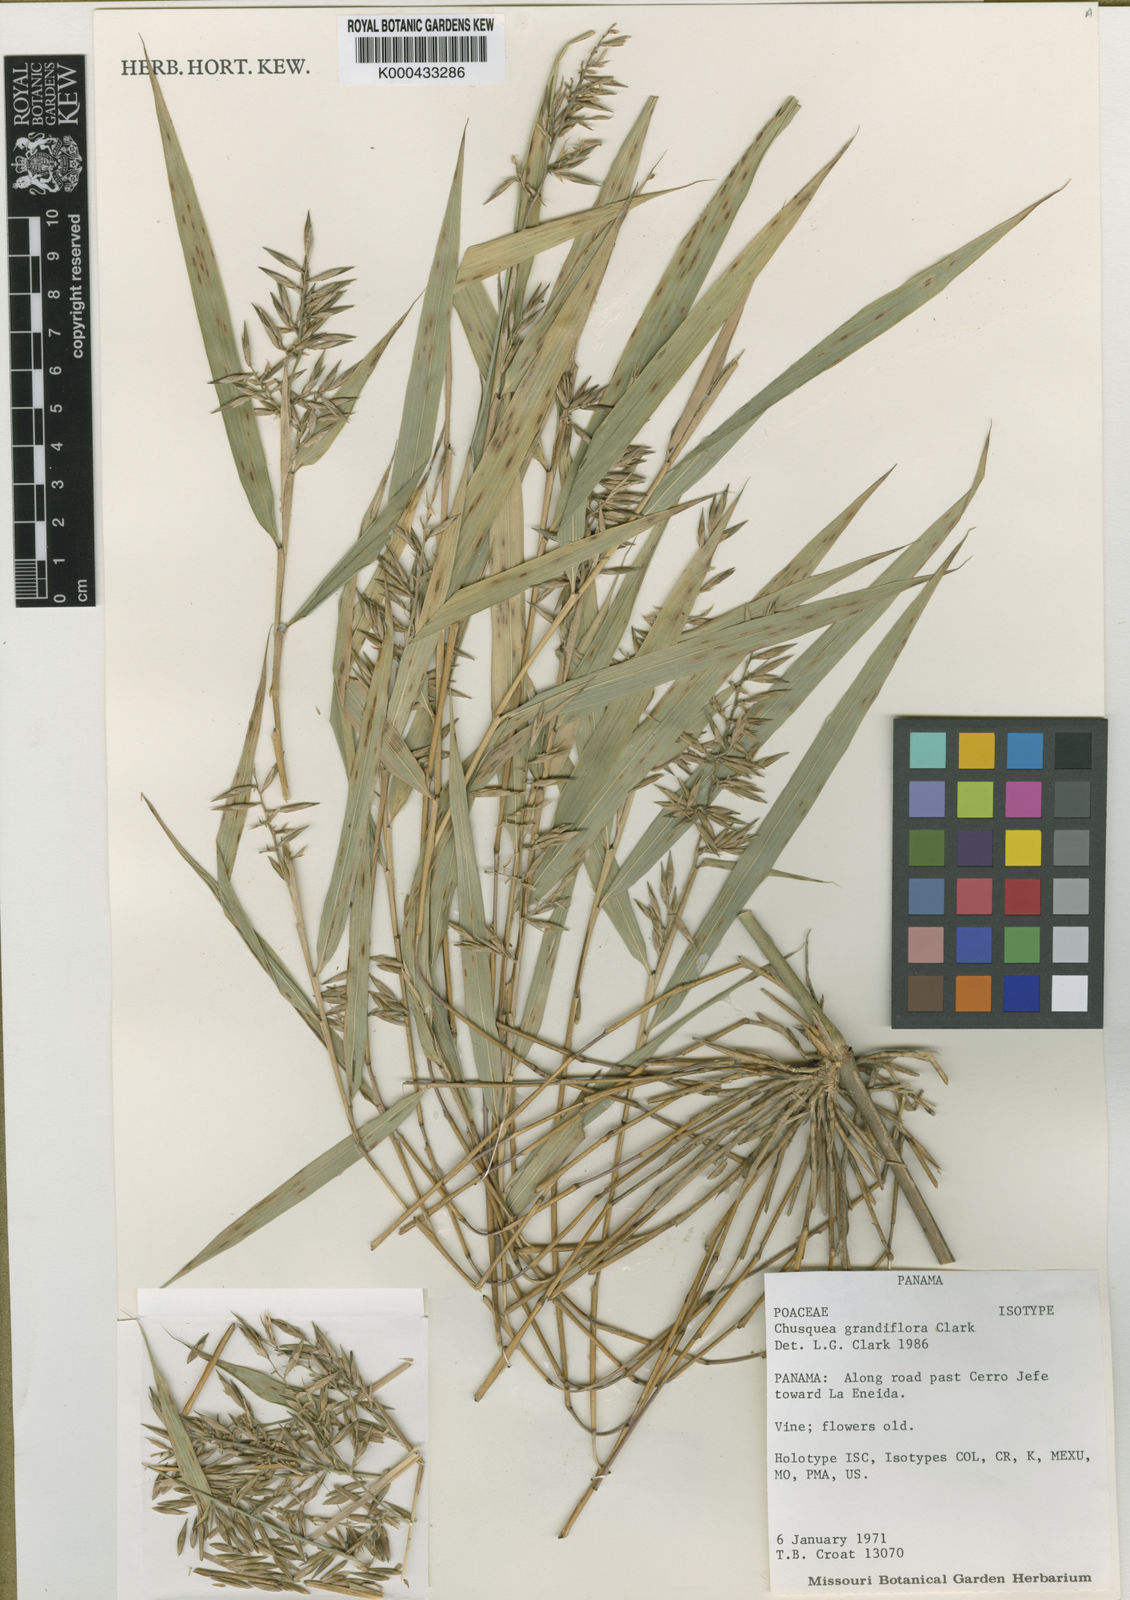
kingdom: Plantae
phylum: Tracheophyta
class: Liliopsida
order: Poales
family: Poaceae
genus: Chusquea
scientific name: Chusquea grandiflora
